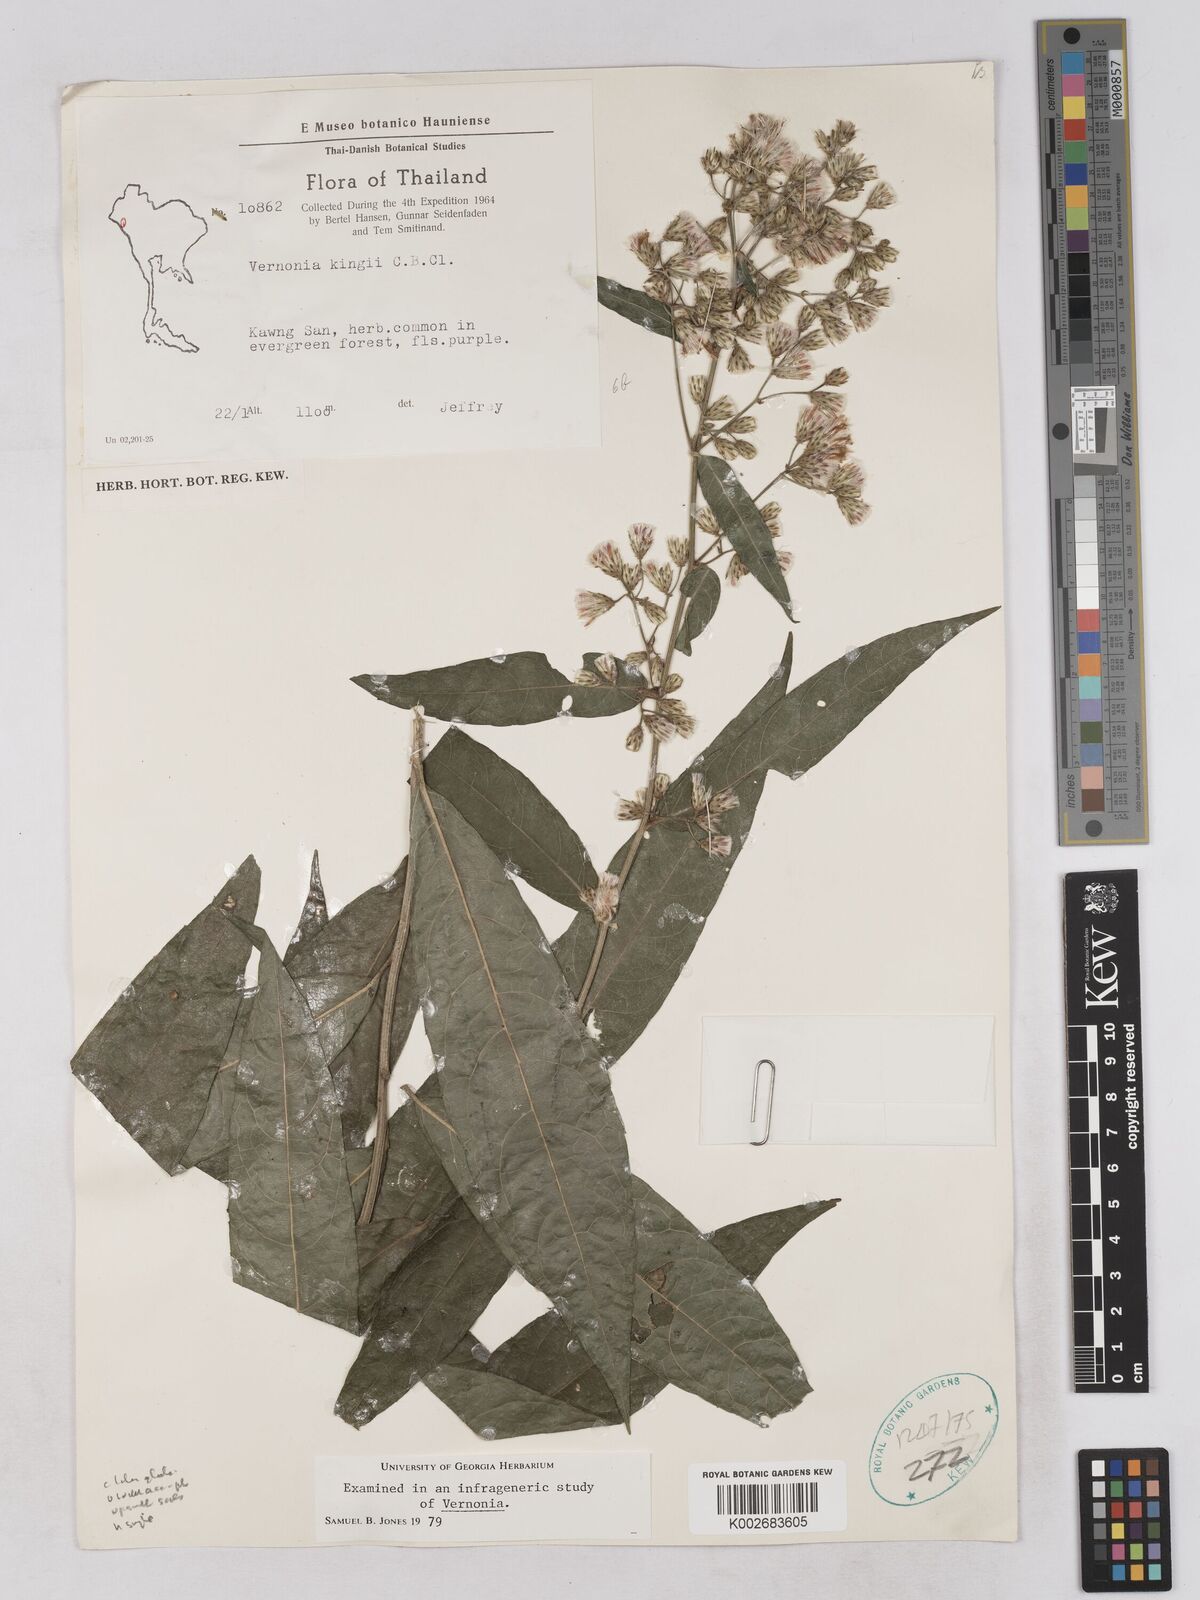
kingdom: Plantae
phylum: Tracheophyta
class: Magnoliopsida
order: Asterales
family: Asteraceae
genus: Acilepis
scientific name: Acilepis kingii
